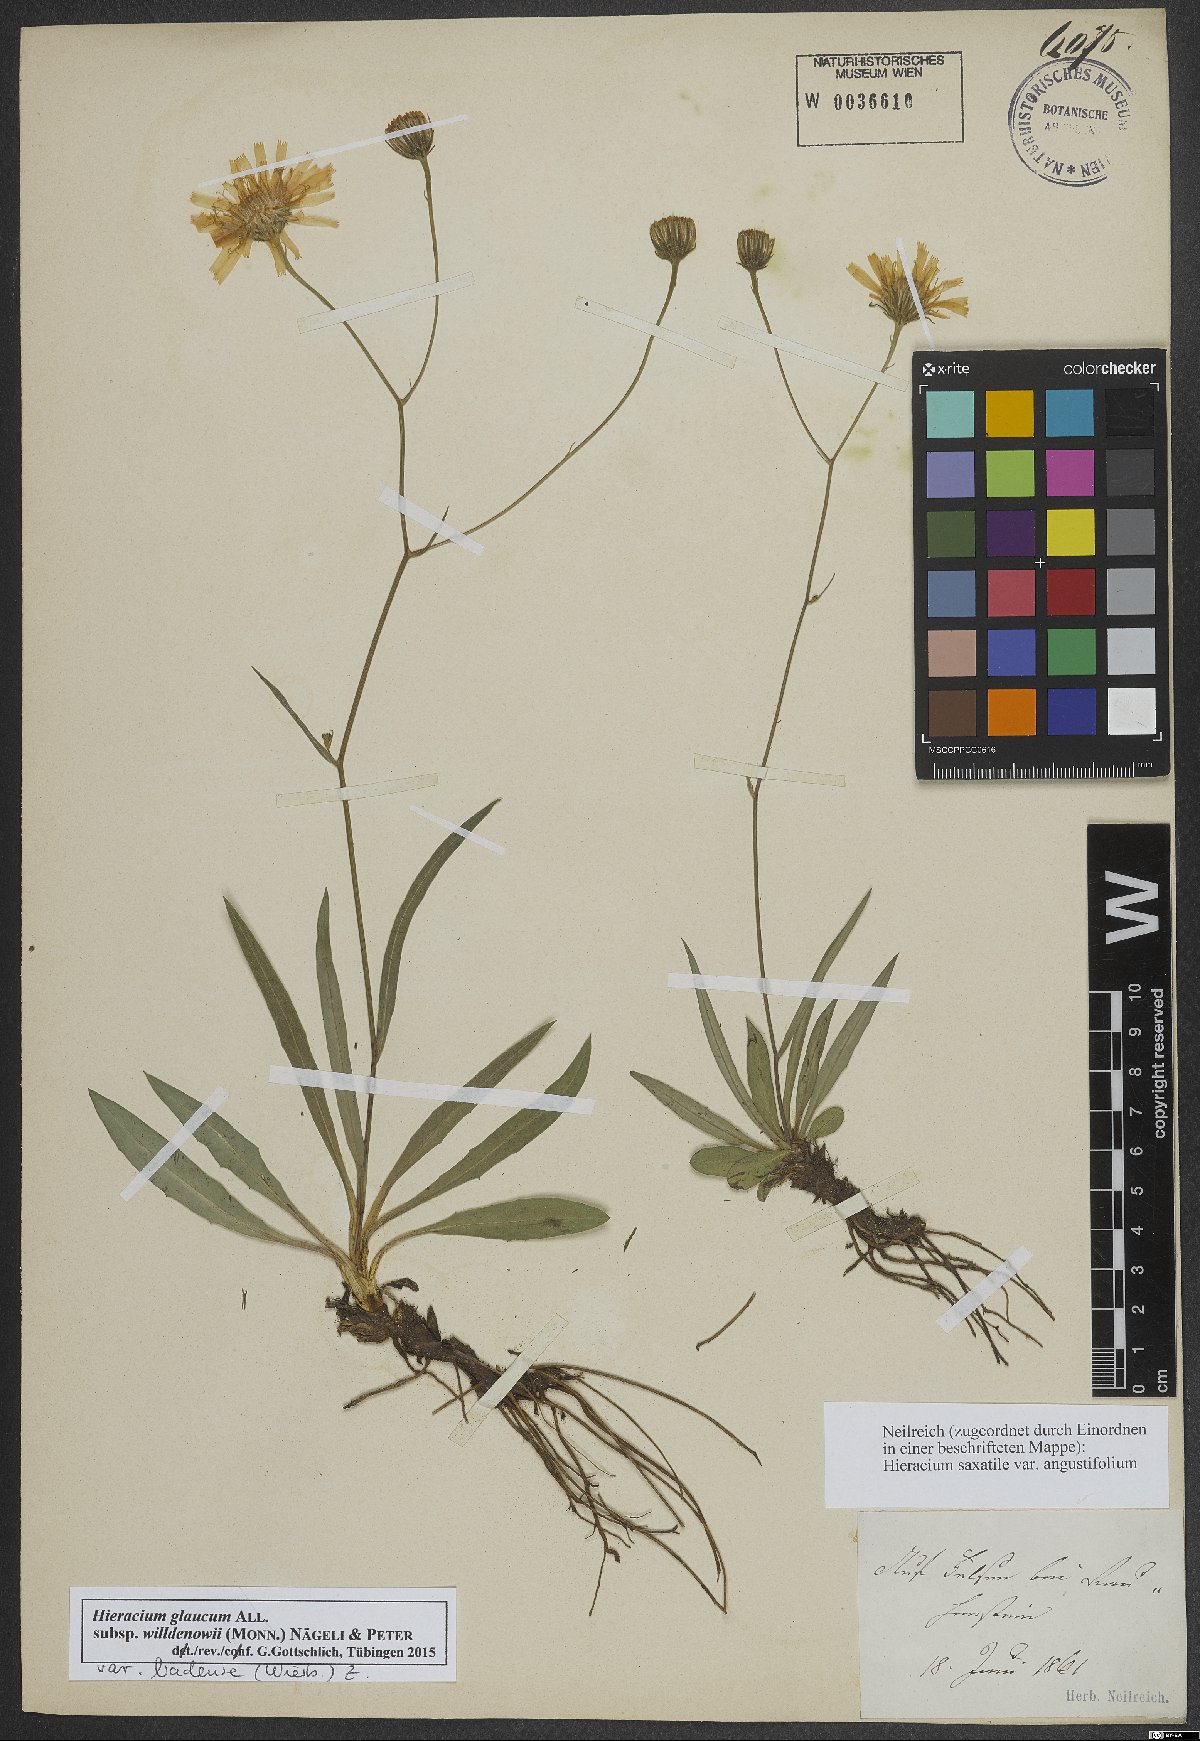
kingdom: Plantae
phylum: Tracheophyta
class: Magnoliopsida
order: Asterales
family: Asteraceae
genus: Hieracium
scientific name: Hieracium glaucum
